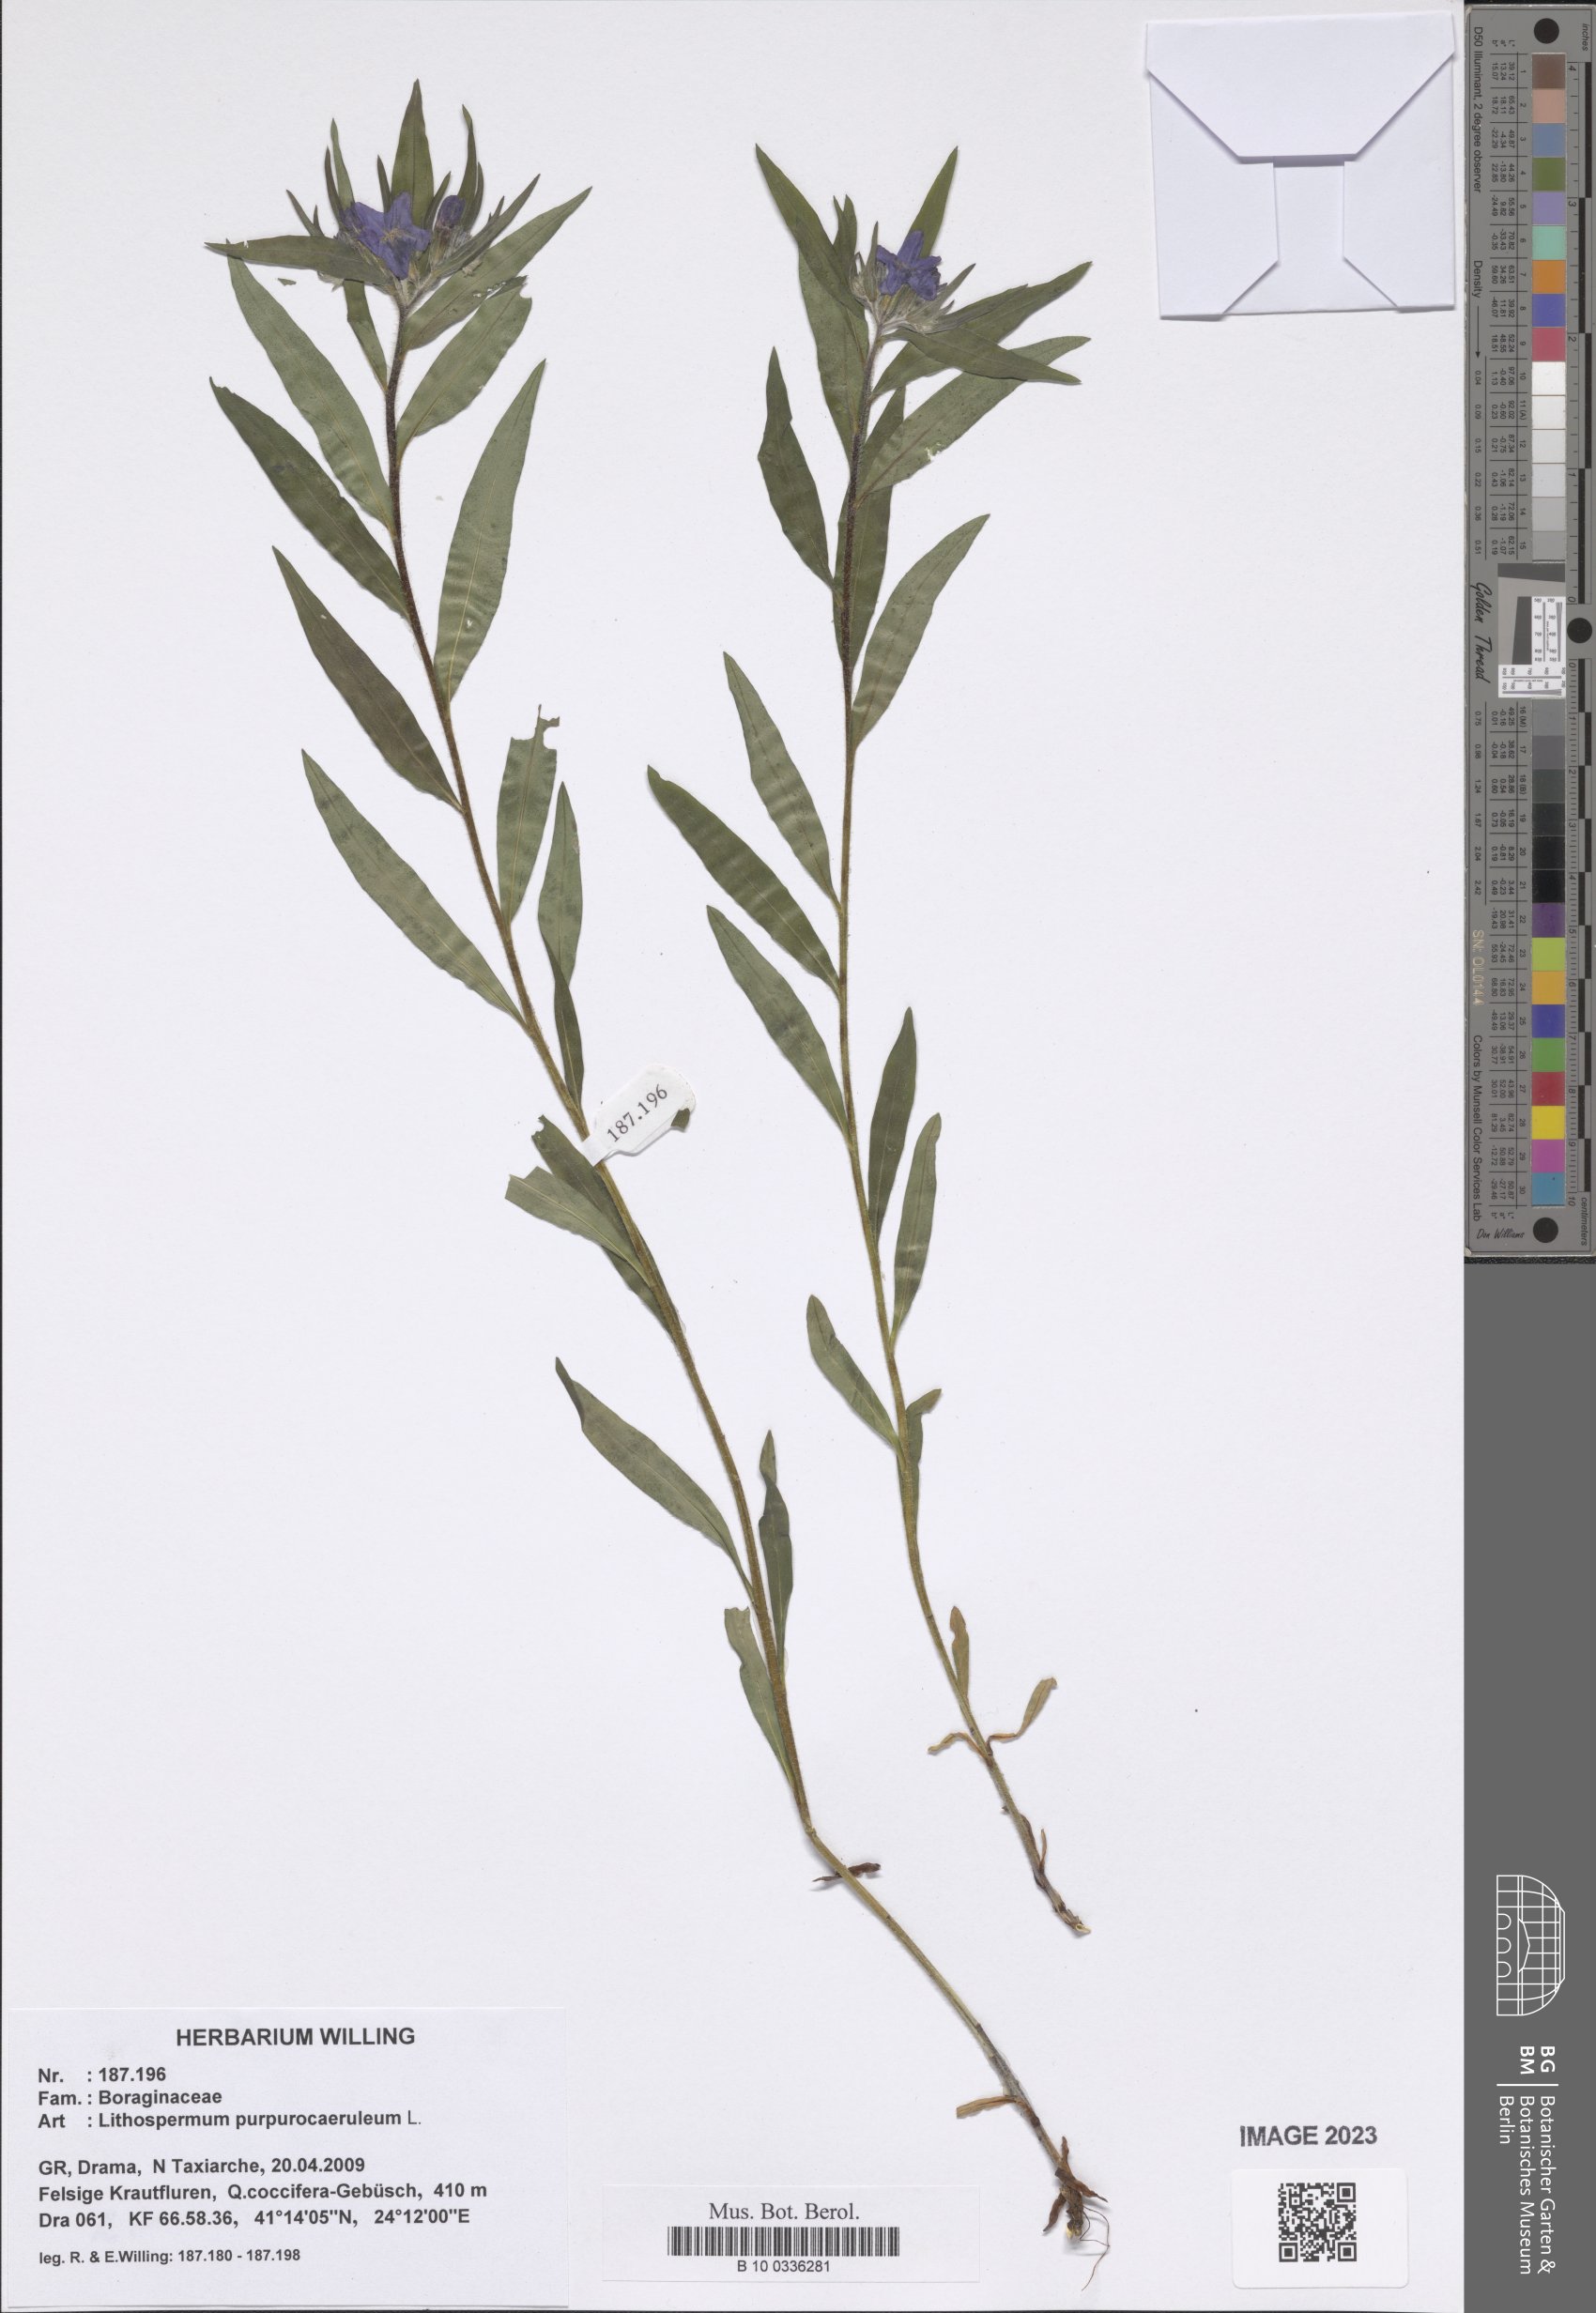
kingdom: Plantae
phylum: Tracheophyta
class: Magnoliopsida
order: Boraginales
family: Boraginaceae
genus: Aegonychon
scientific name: Aegonychon purpurocaeruleum
